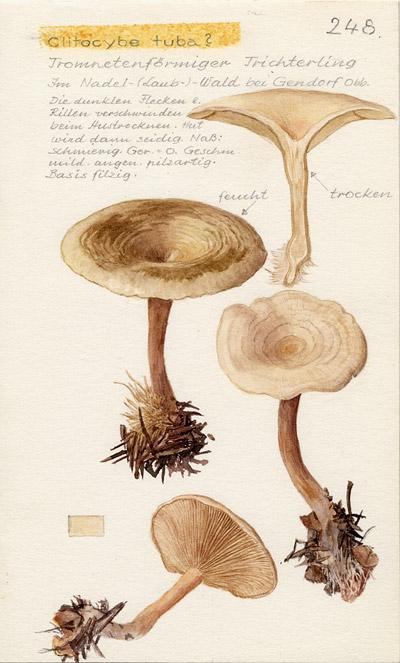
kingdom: Fungi
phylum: Basidiomycota
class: Agaricomycetes
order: Agaricales
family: Tricholomataceae
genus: Leucocybe
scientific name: Leucocybe candicans
